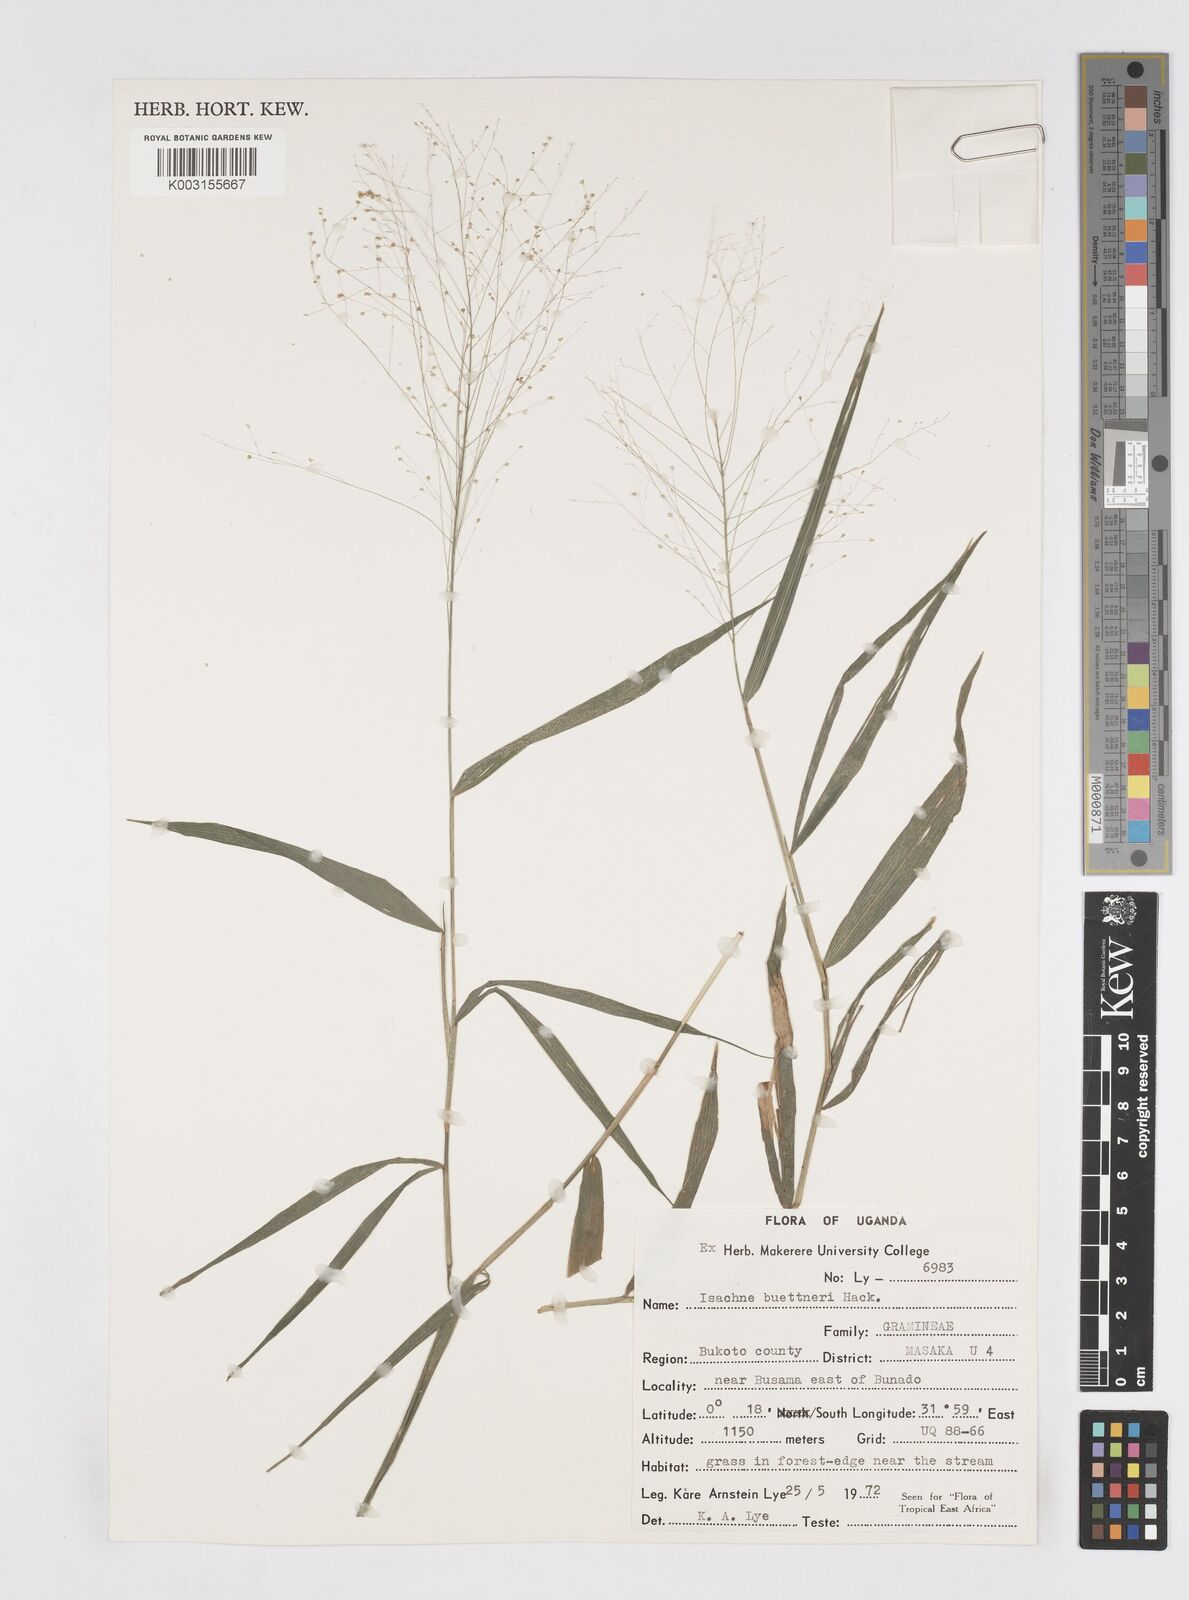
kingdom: Plantae
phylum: Tracheophyta
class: Liliopsida
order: Poales
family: Poaceae
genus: Isachne
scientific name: Isachne albens
